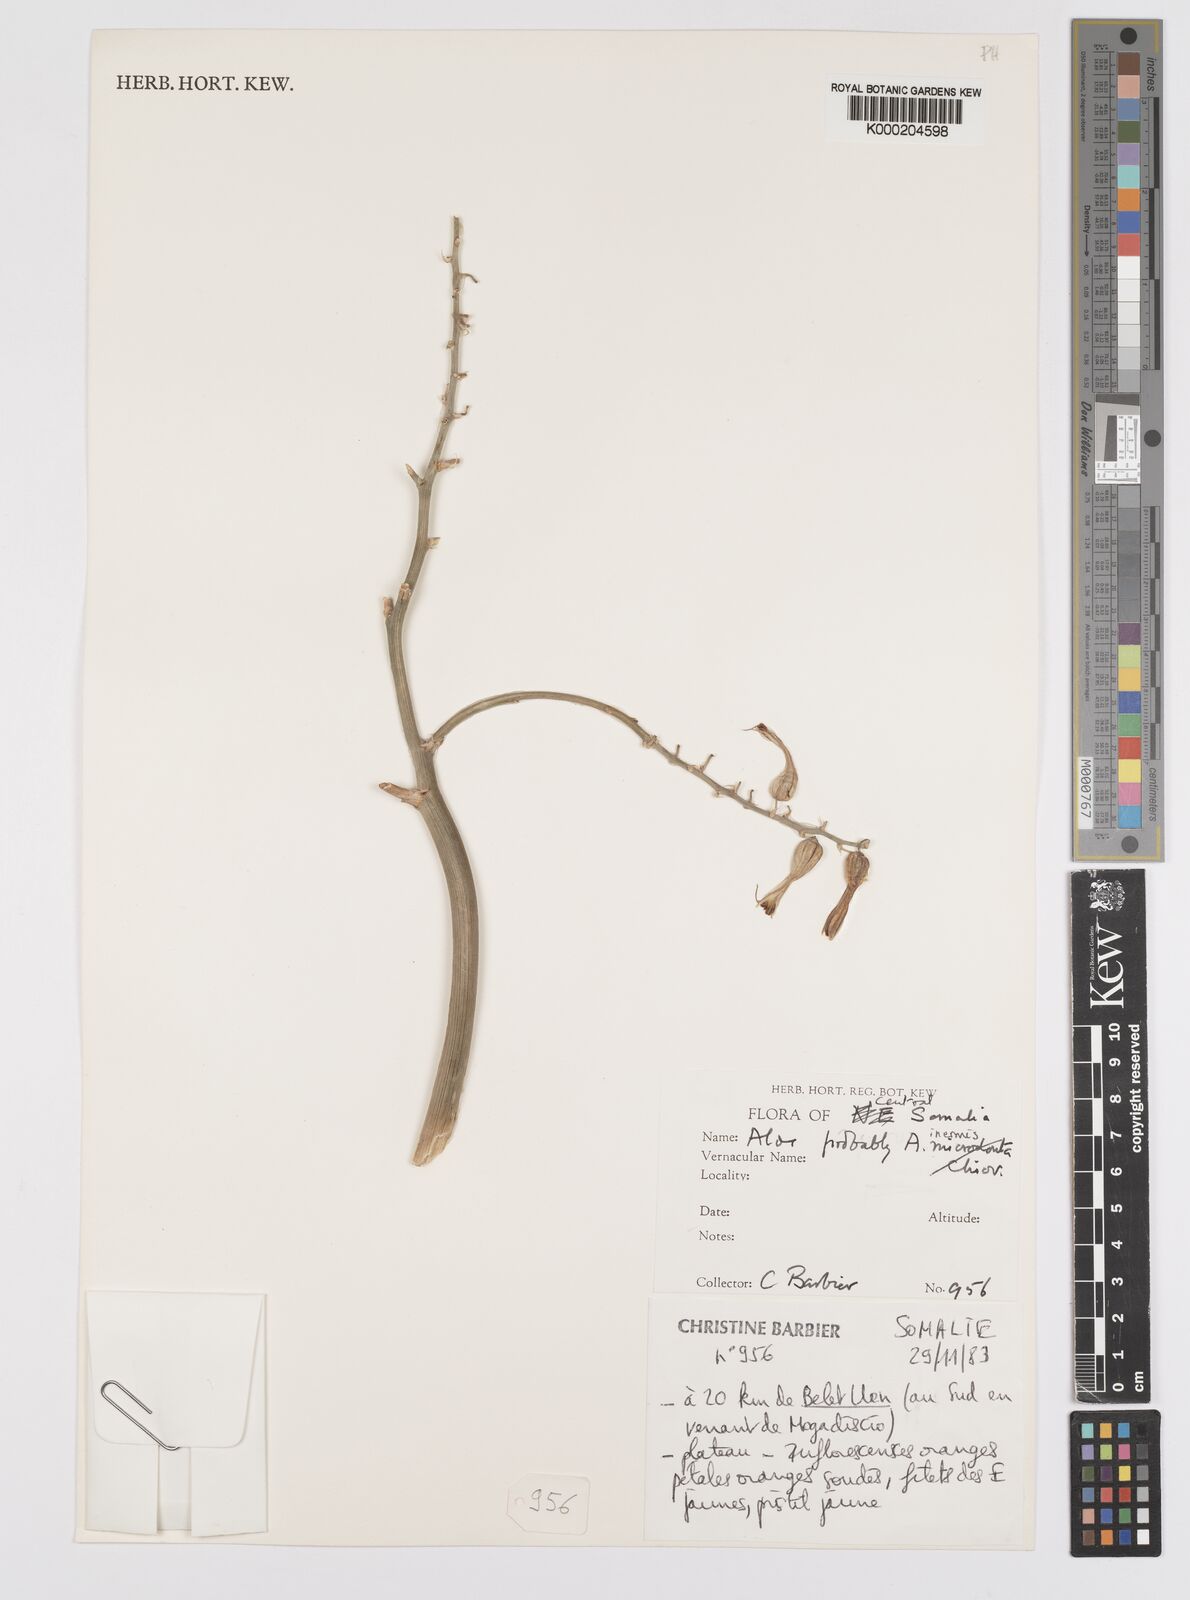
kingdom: Plantae
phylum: Tracheophyta
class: Liliopsida
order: Asparagales
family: Asphodelaceae
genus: Aloe
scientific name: Aloe luntii
